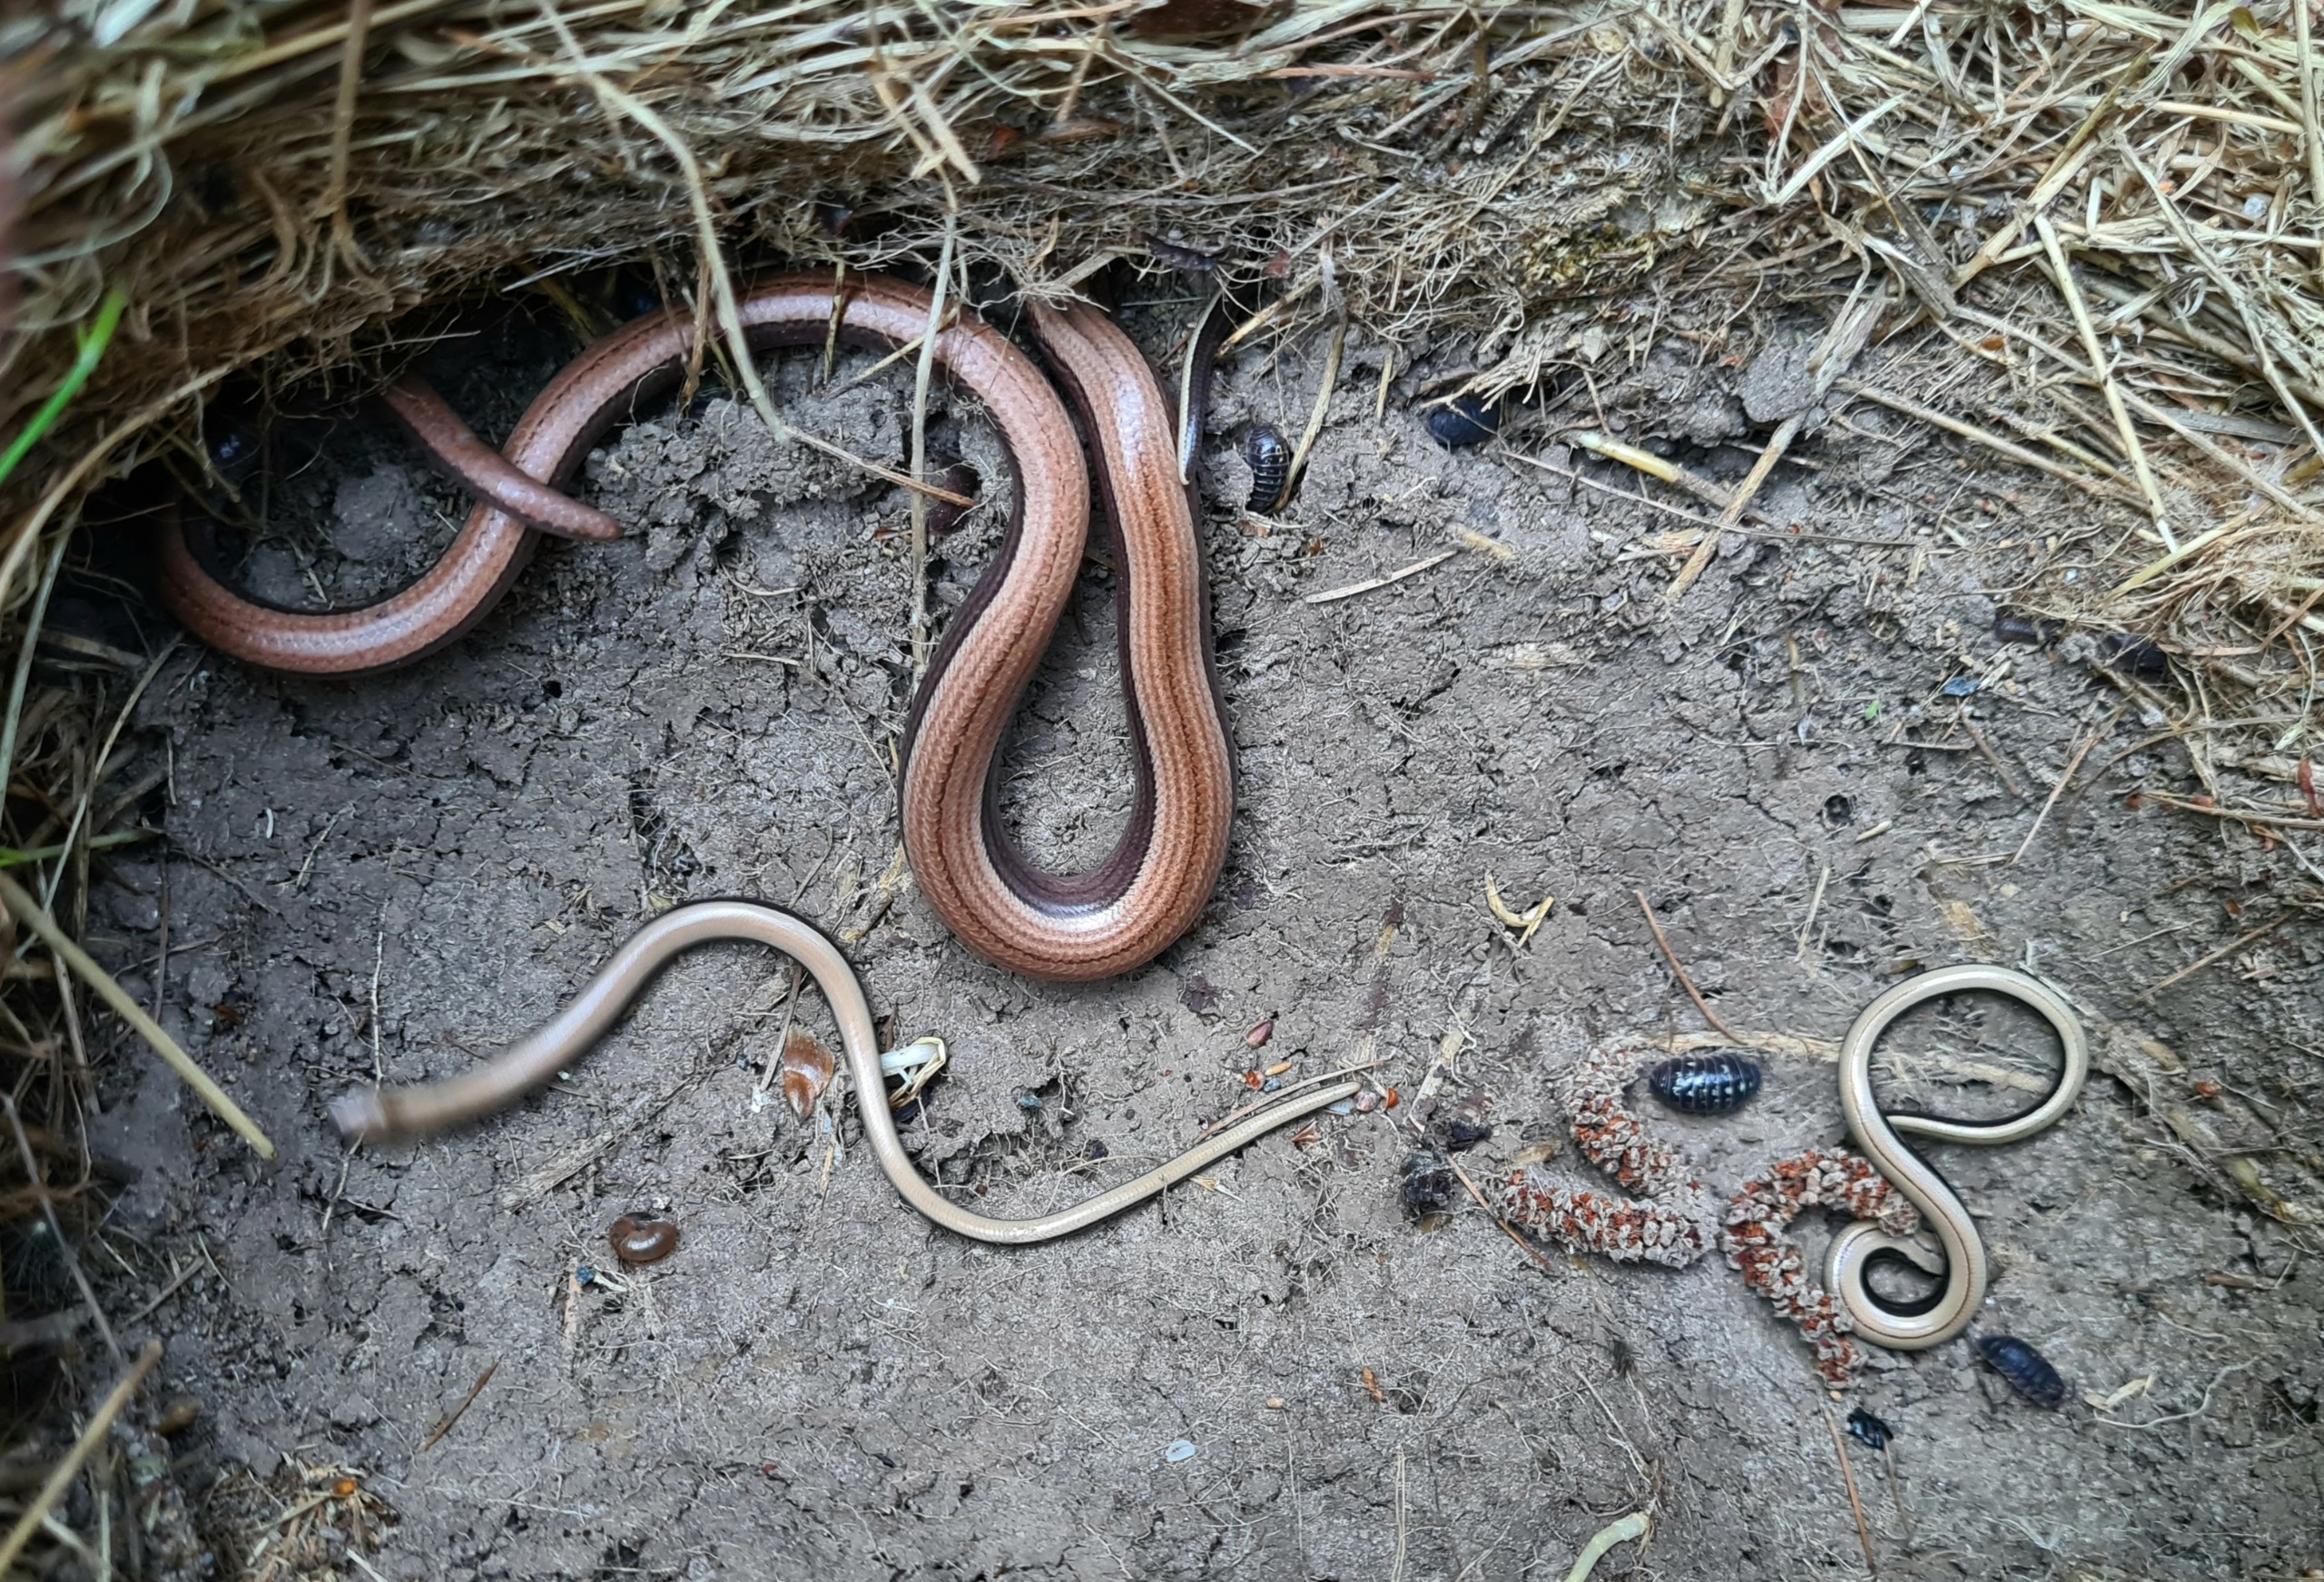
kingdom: Animalia
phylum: Chordata
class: Squamata
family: Anguidae
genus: Anguis
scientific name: Anguis fragilis
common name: Stålorm
